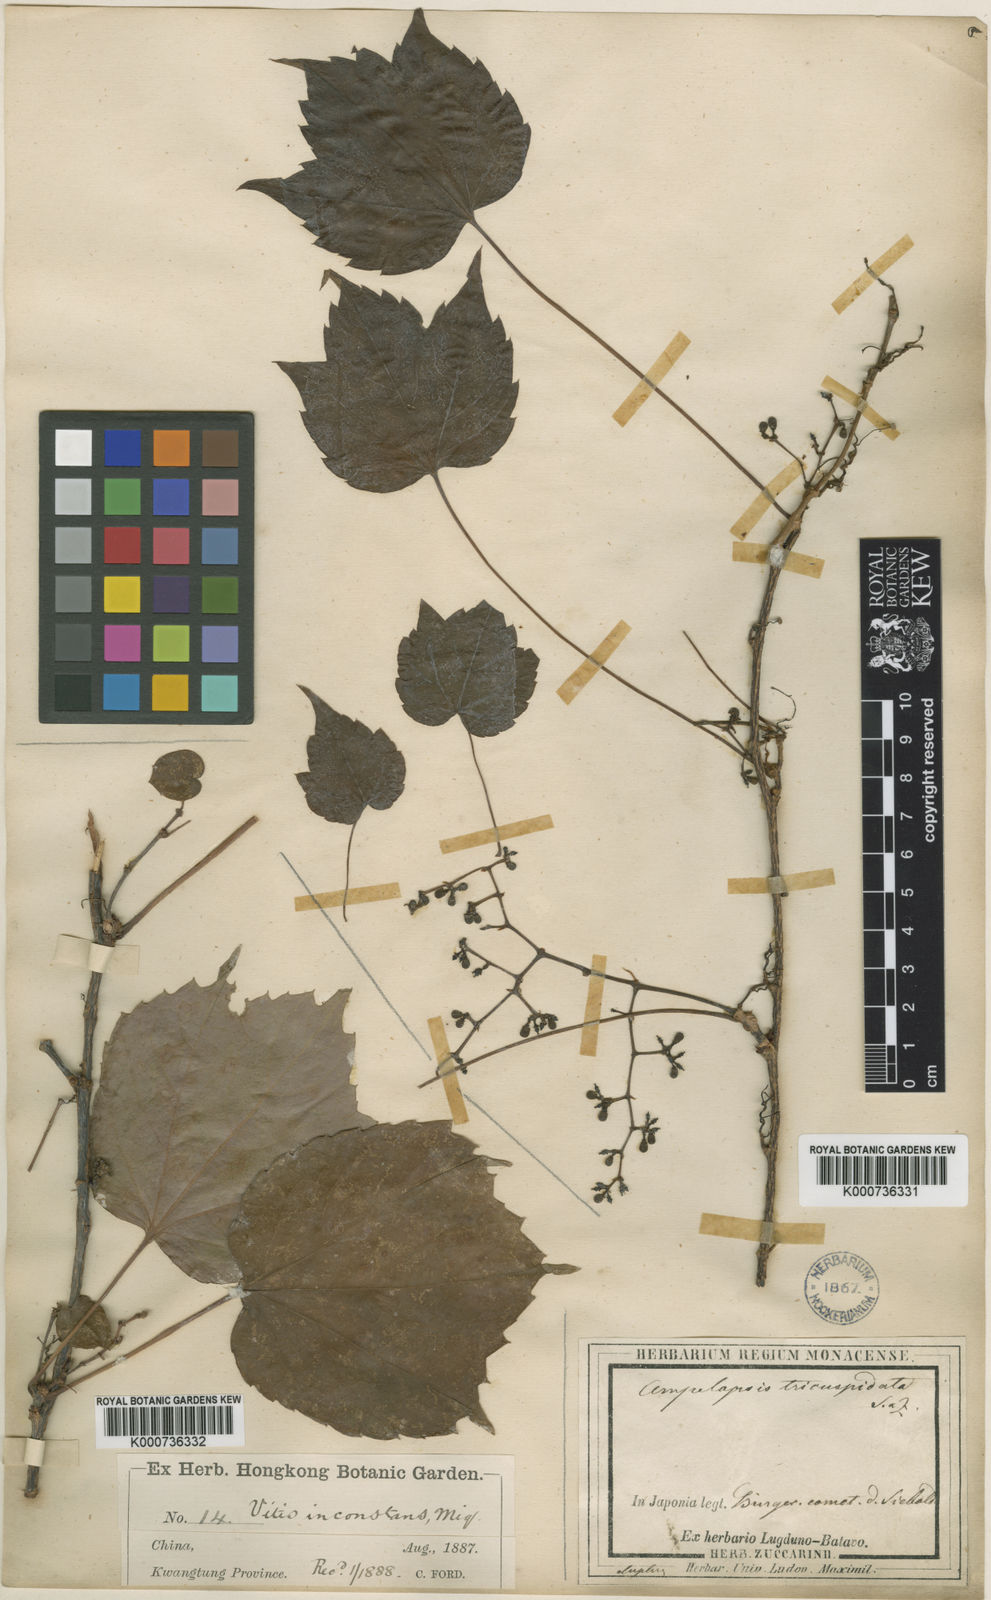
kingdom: Plantae
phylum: Tracheophyta
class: Magnoliopsida
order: Vitales
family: Vitaceae
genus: Parthenocissus
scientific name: Parthenocissus tricuspidata
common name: Boston ivy
